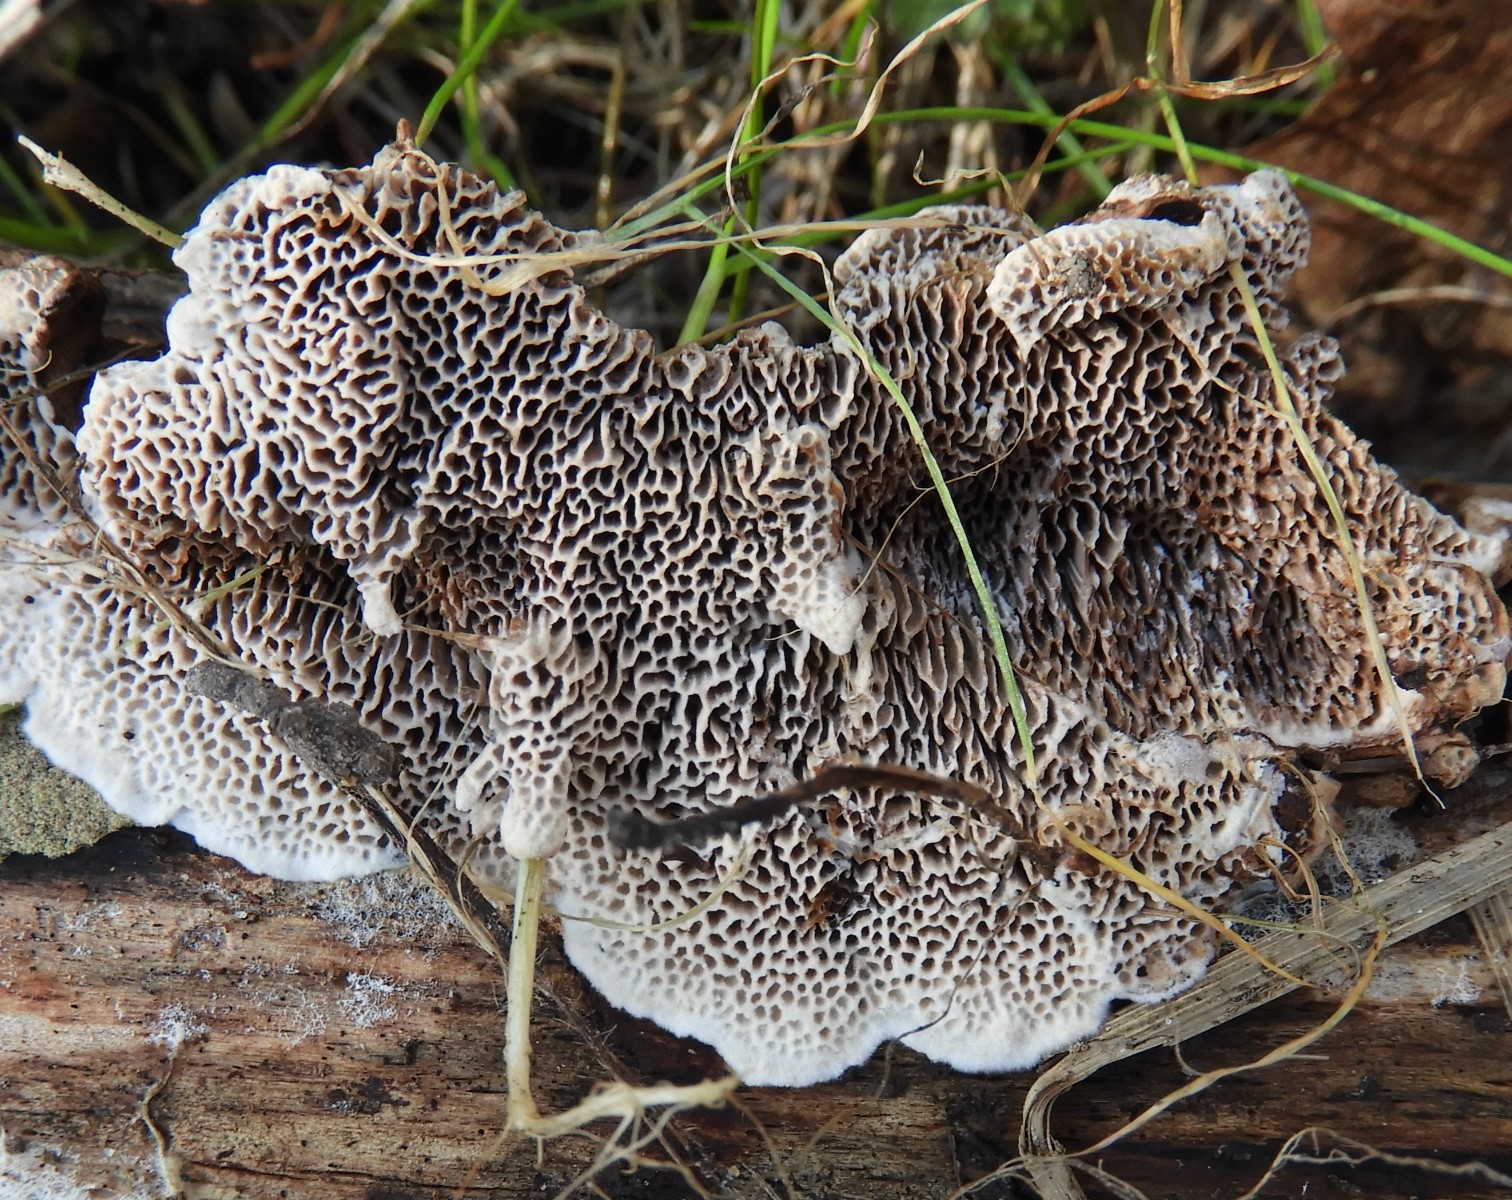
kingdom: Fungi
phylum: Basidiomycota
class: Agaricomycetes
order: Polyporales
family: Polyporaceae
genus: Podofomes
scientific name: Podofomes mollis
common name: blød begporesvamp
